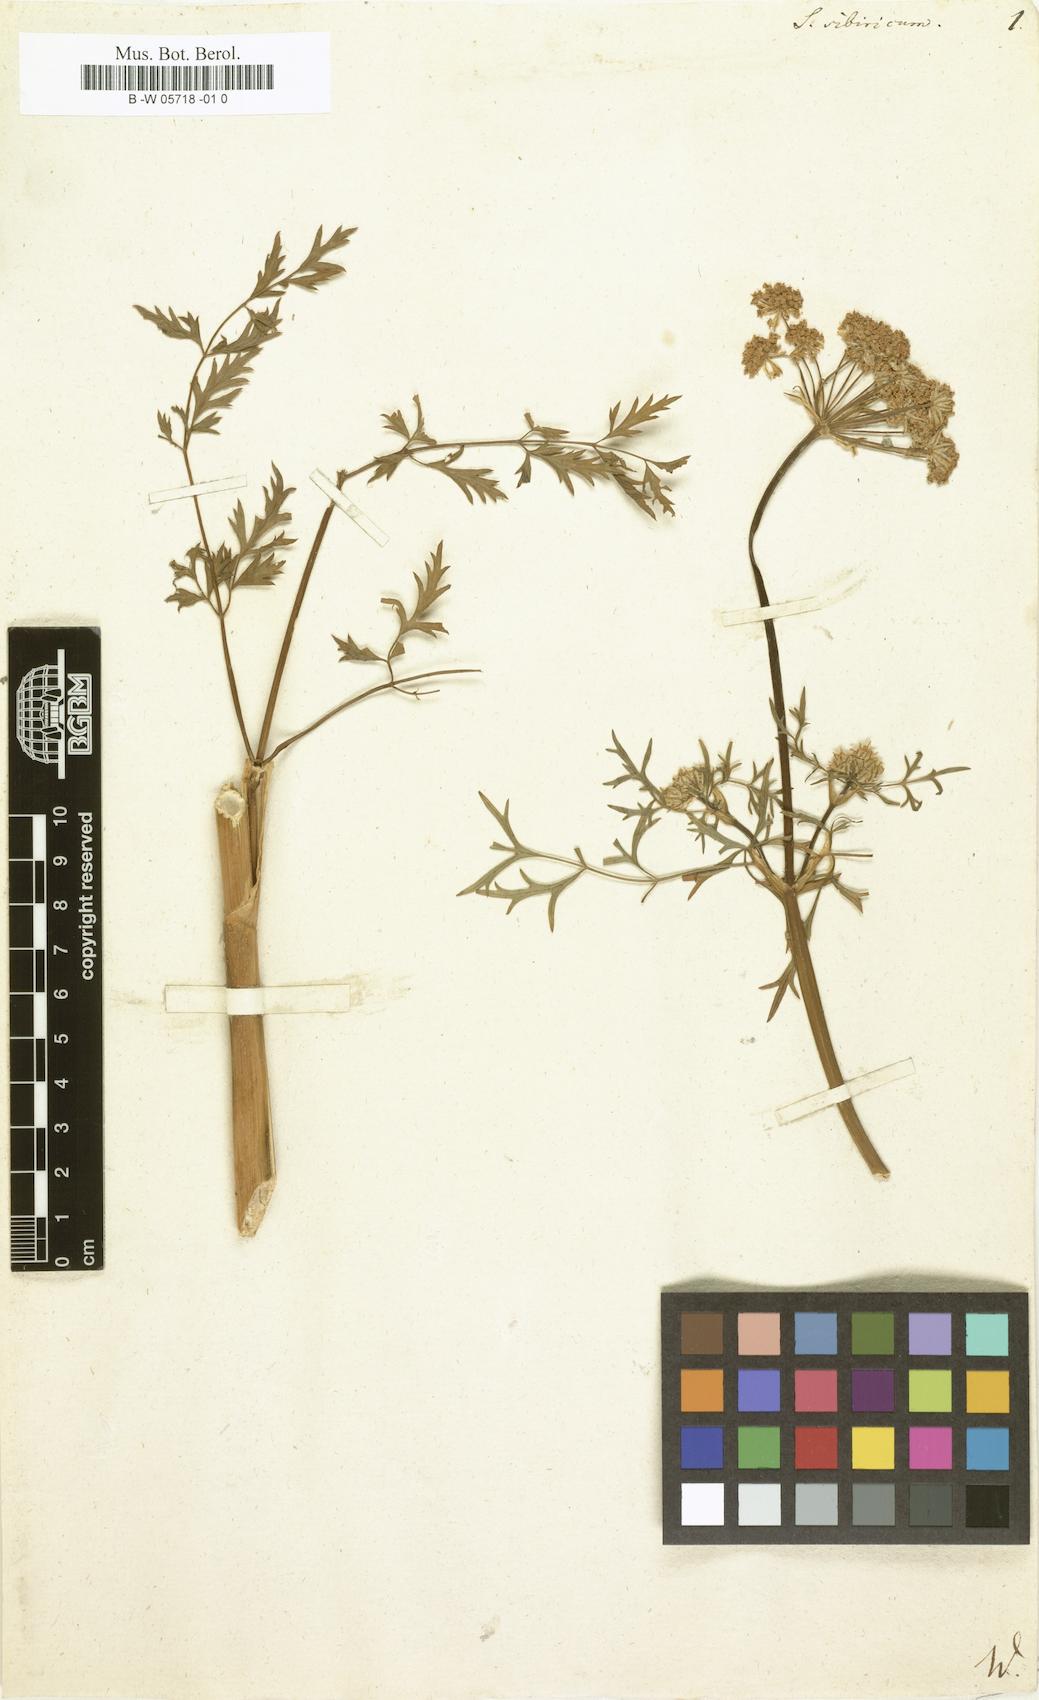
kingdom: Plantae
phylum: Tracheophyta
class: Magnoliopsida
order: Apiales
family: Apiaceae
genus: Pachypleurum
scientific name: Pachypleurum mutellinoides
